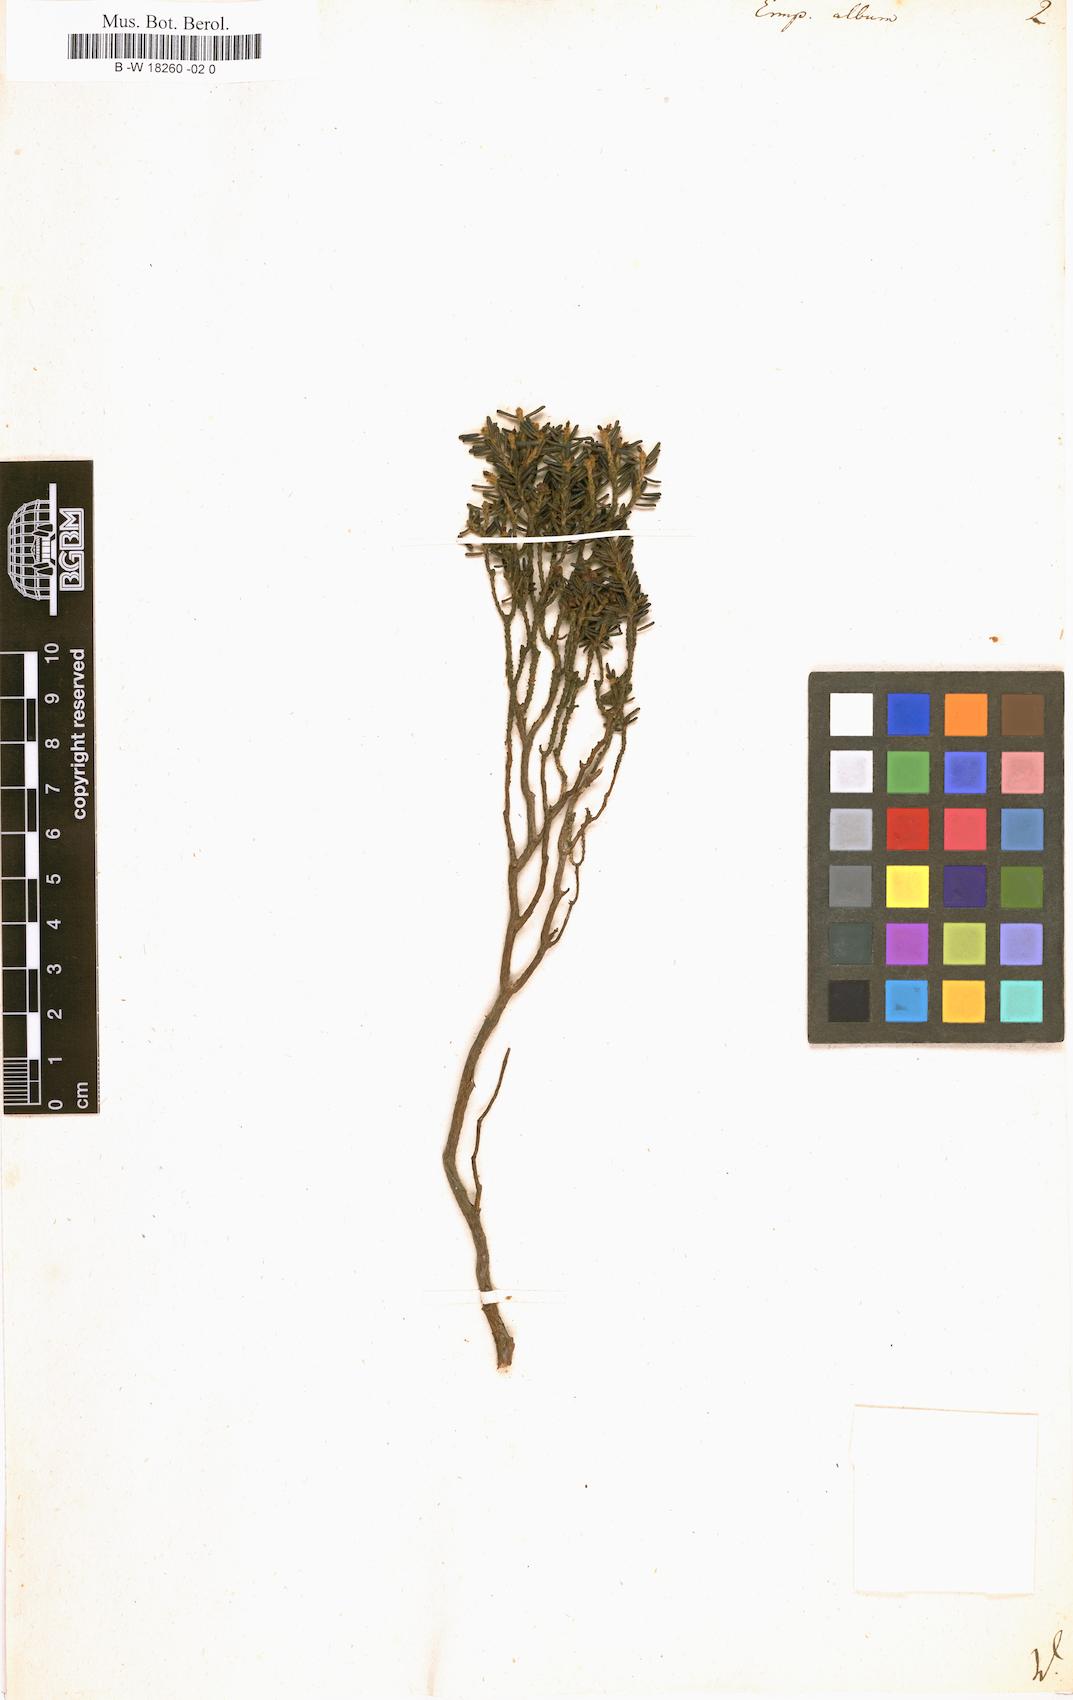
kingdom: Plantae
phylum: Tracheophyta
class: Magnoliopsida
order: Ericales
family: Ericaceae
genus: Corema
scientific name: Corema album
